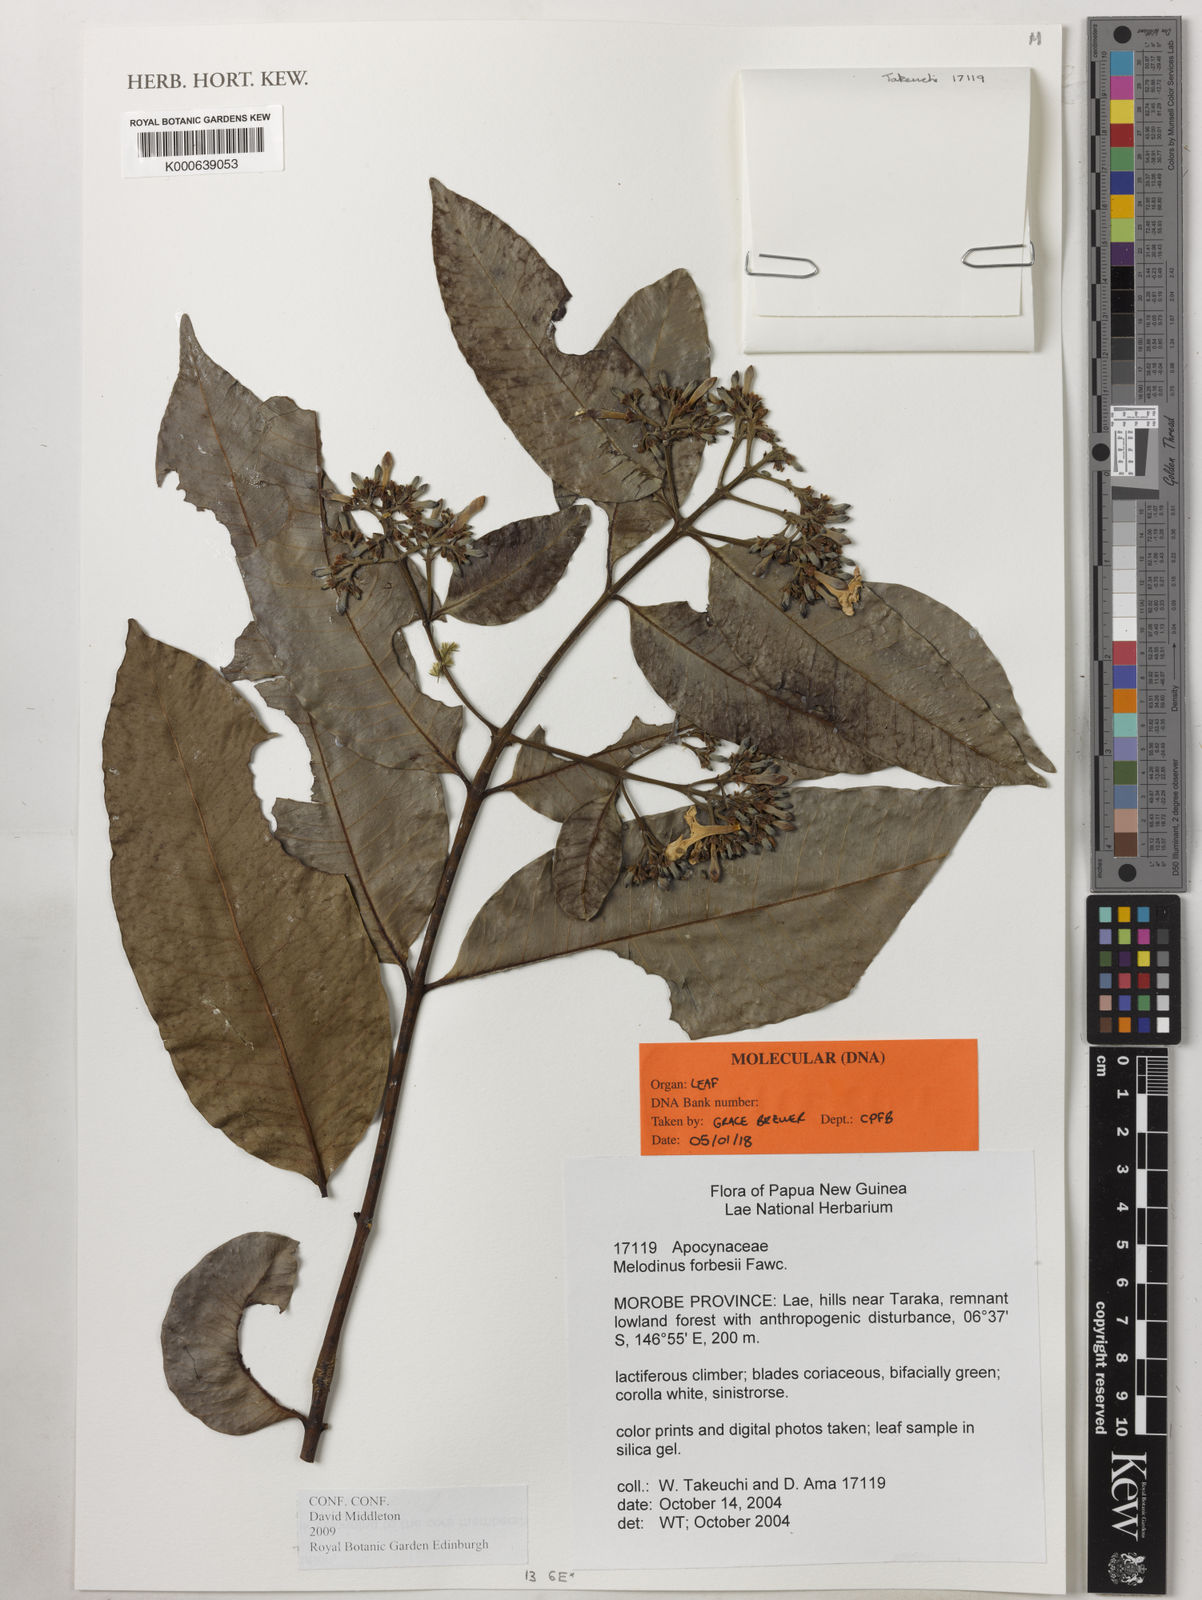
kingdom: Plantae
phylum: Tracheophyta
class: Magnoliopsida
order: Gentianales
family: Apocynaceae
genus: Melodinus
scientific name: Melodinus forbesii
